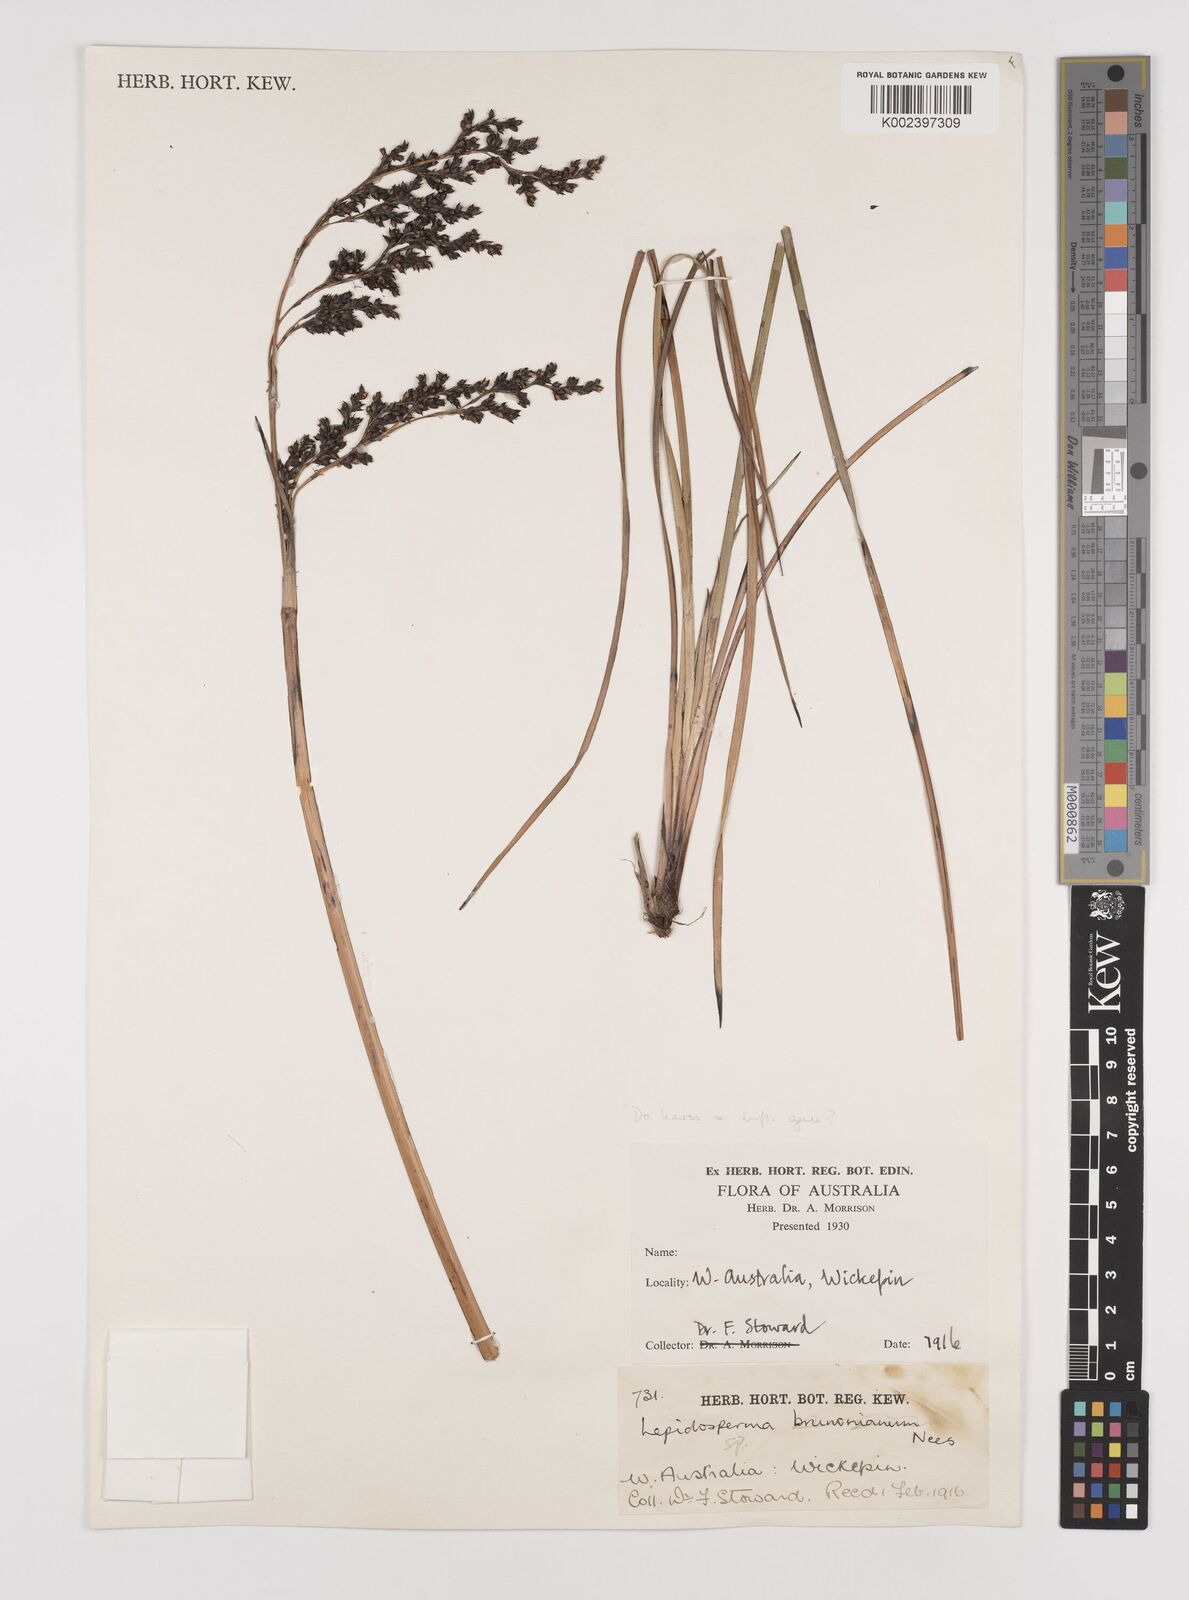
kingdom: Plantae
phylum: Tracheophyta
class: Liliopsida
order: Poales
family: Cyperaceae
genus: Lepidosperma
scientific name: Lepidosperma
